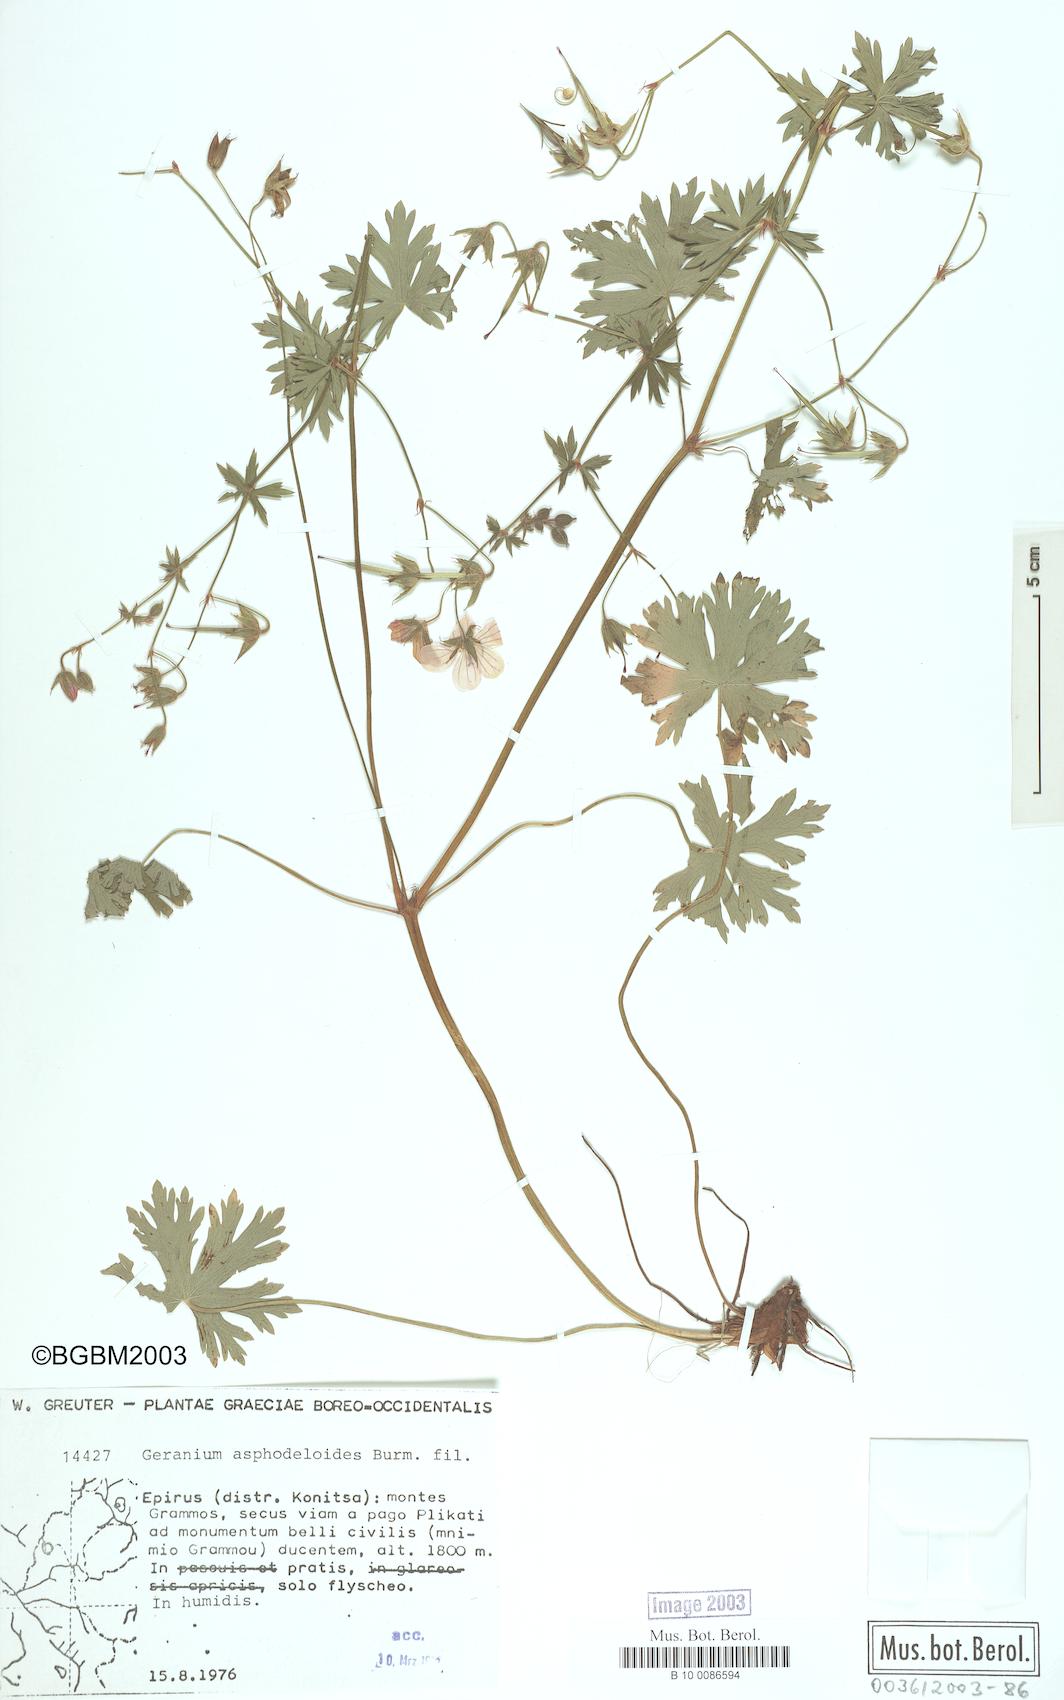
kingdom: Plantae
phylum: Tracheophyta
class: Magnoliopsida
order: Geraniales
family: Geraniaceae
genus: Geranium
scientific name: Geranium asphodeloides
